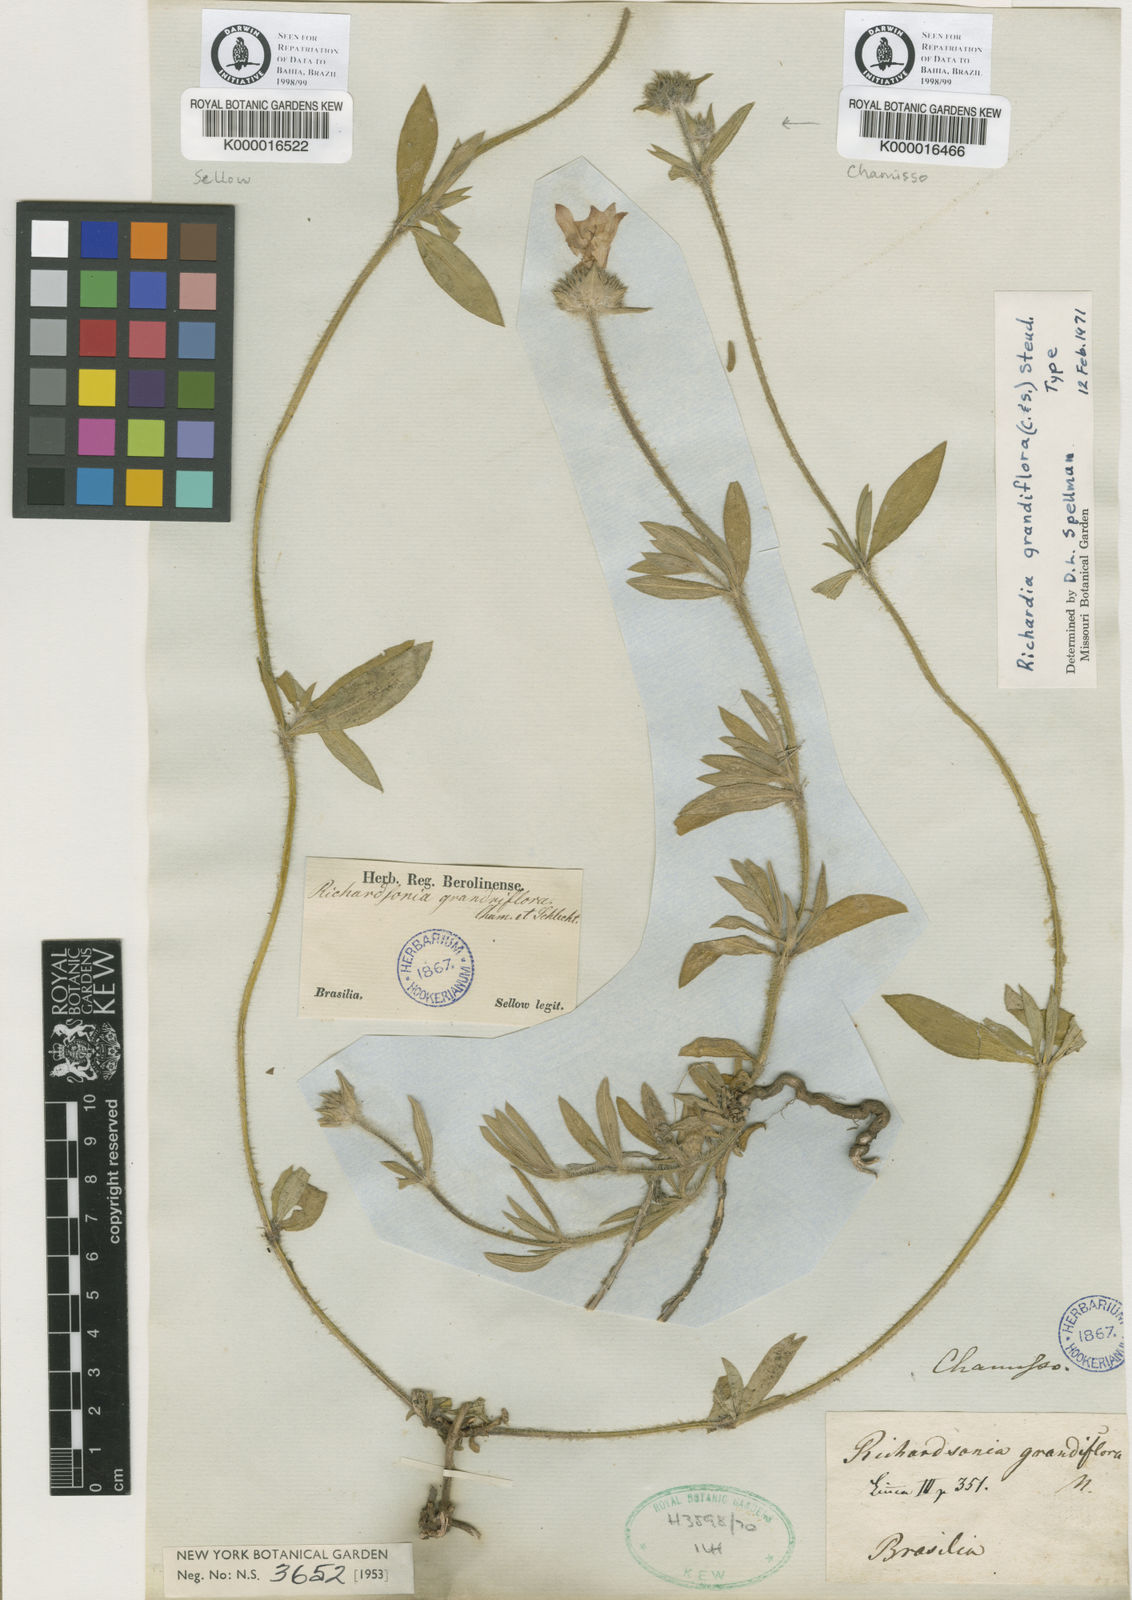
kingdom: Plantae
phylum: Tracheophyta
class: Magnoliopsida
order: Gentianales
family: Rubiaceae
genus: Richardia
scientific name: Richardia grandiflora
